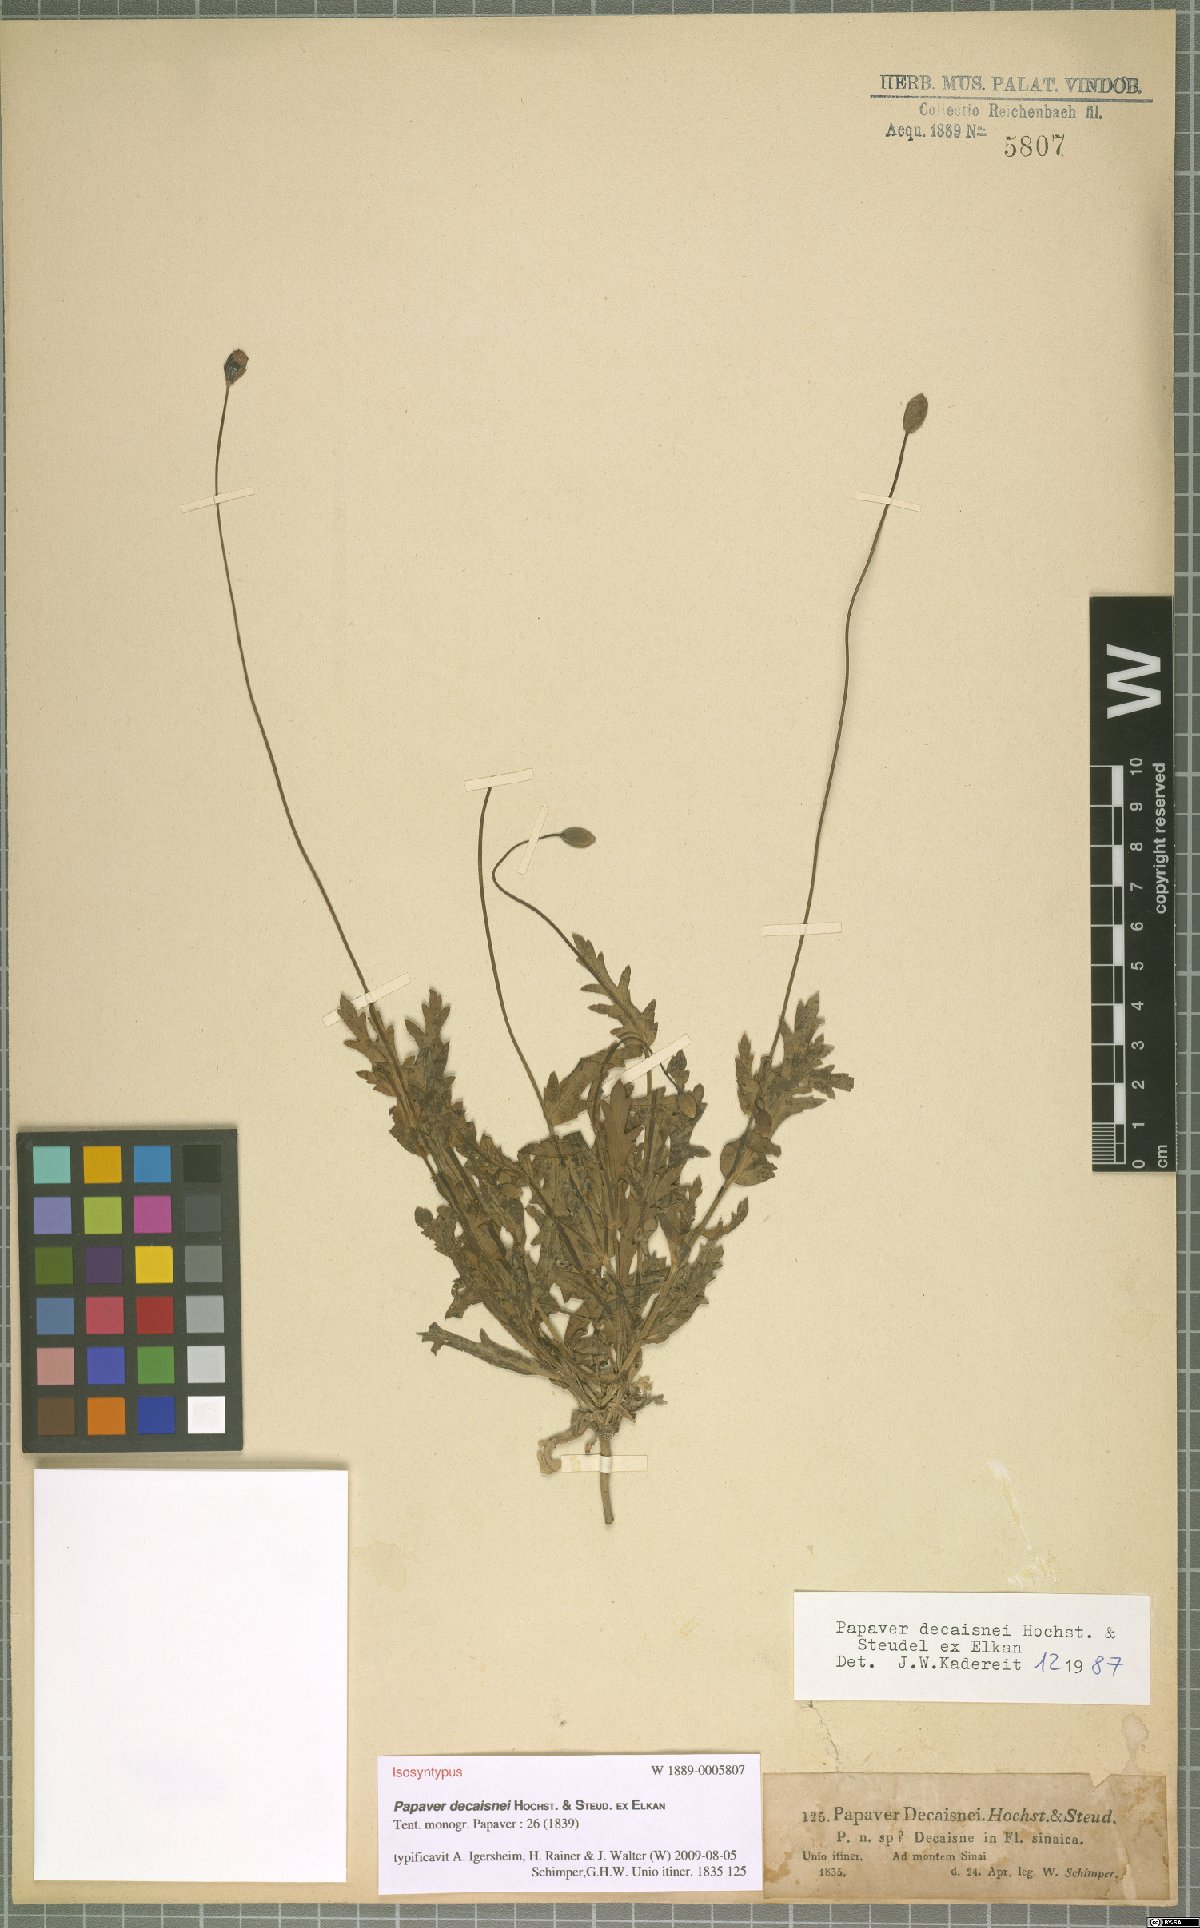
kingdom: Plantae
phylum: Tracheophyta
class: Magnoliopsida
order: Ranunculales
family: Papaveraceae
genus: Papaver
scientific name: Papaver decaisnei
